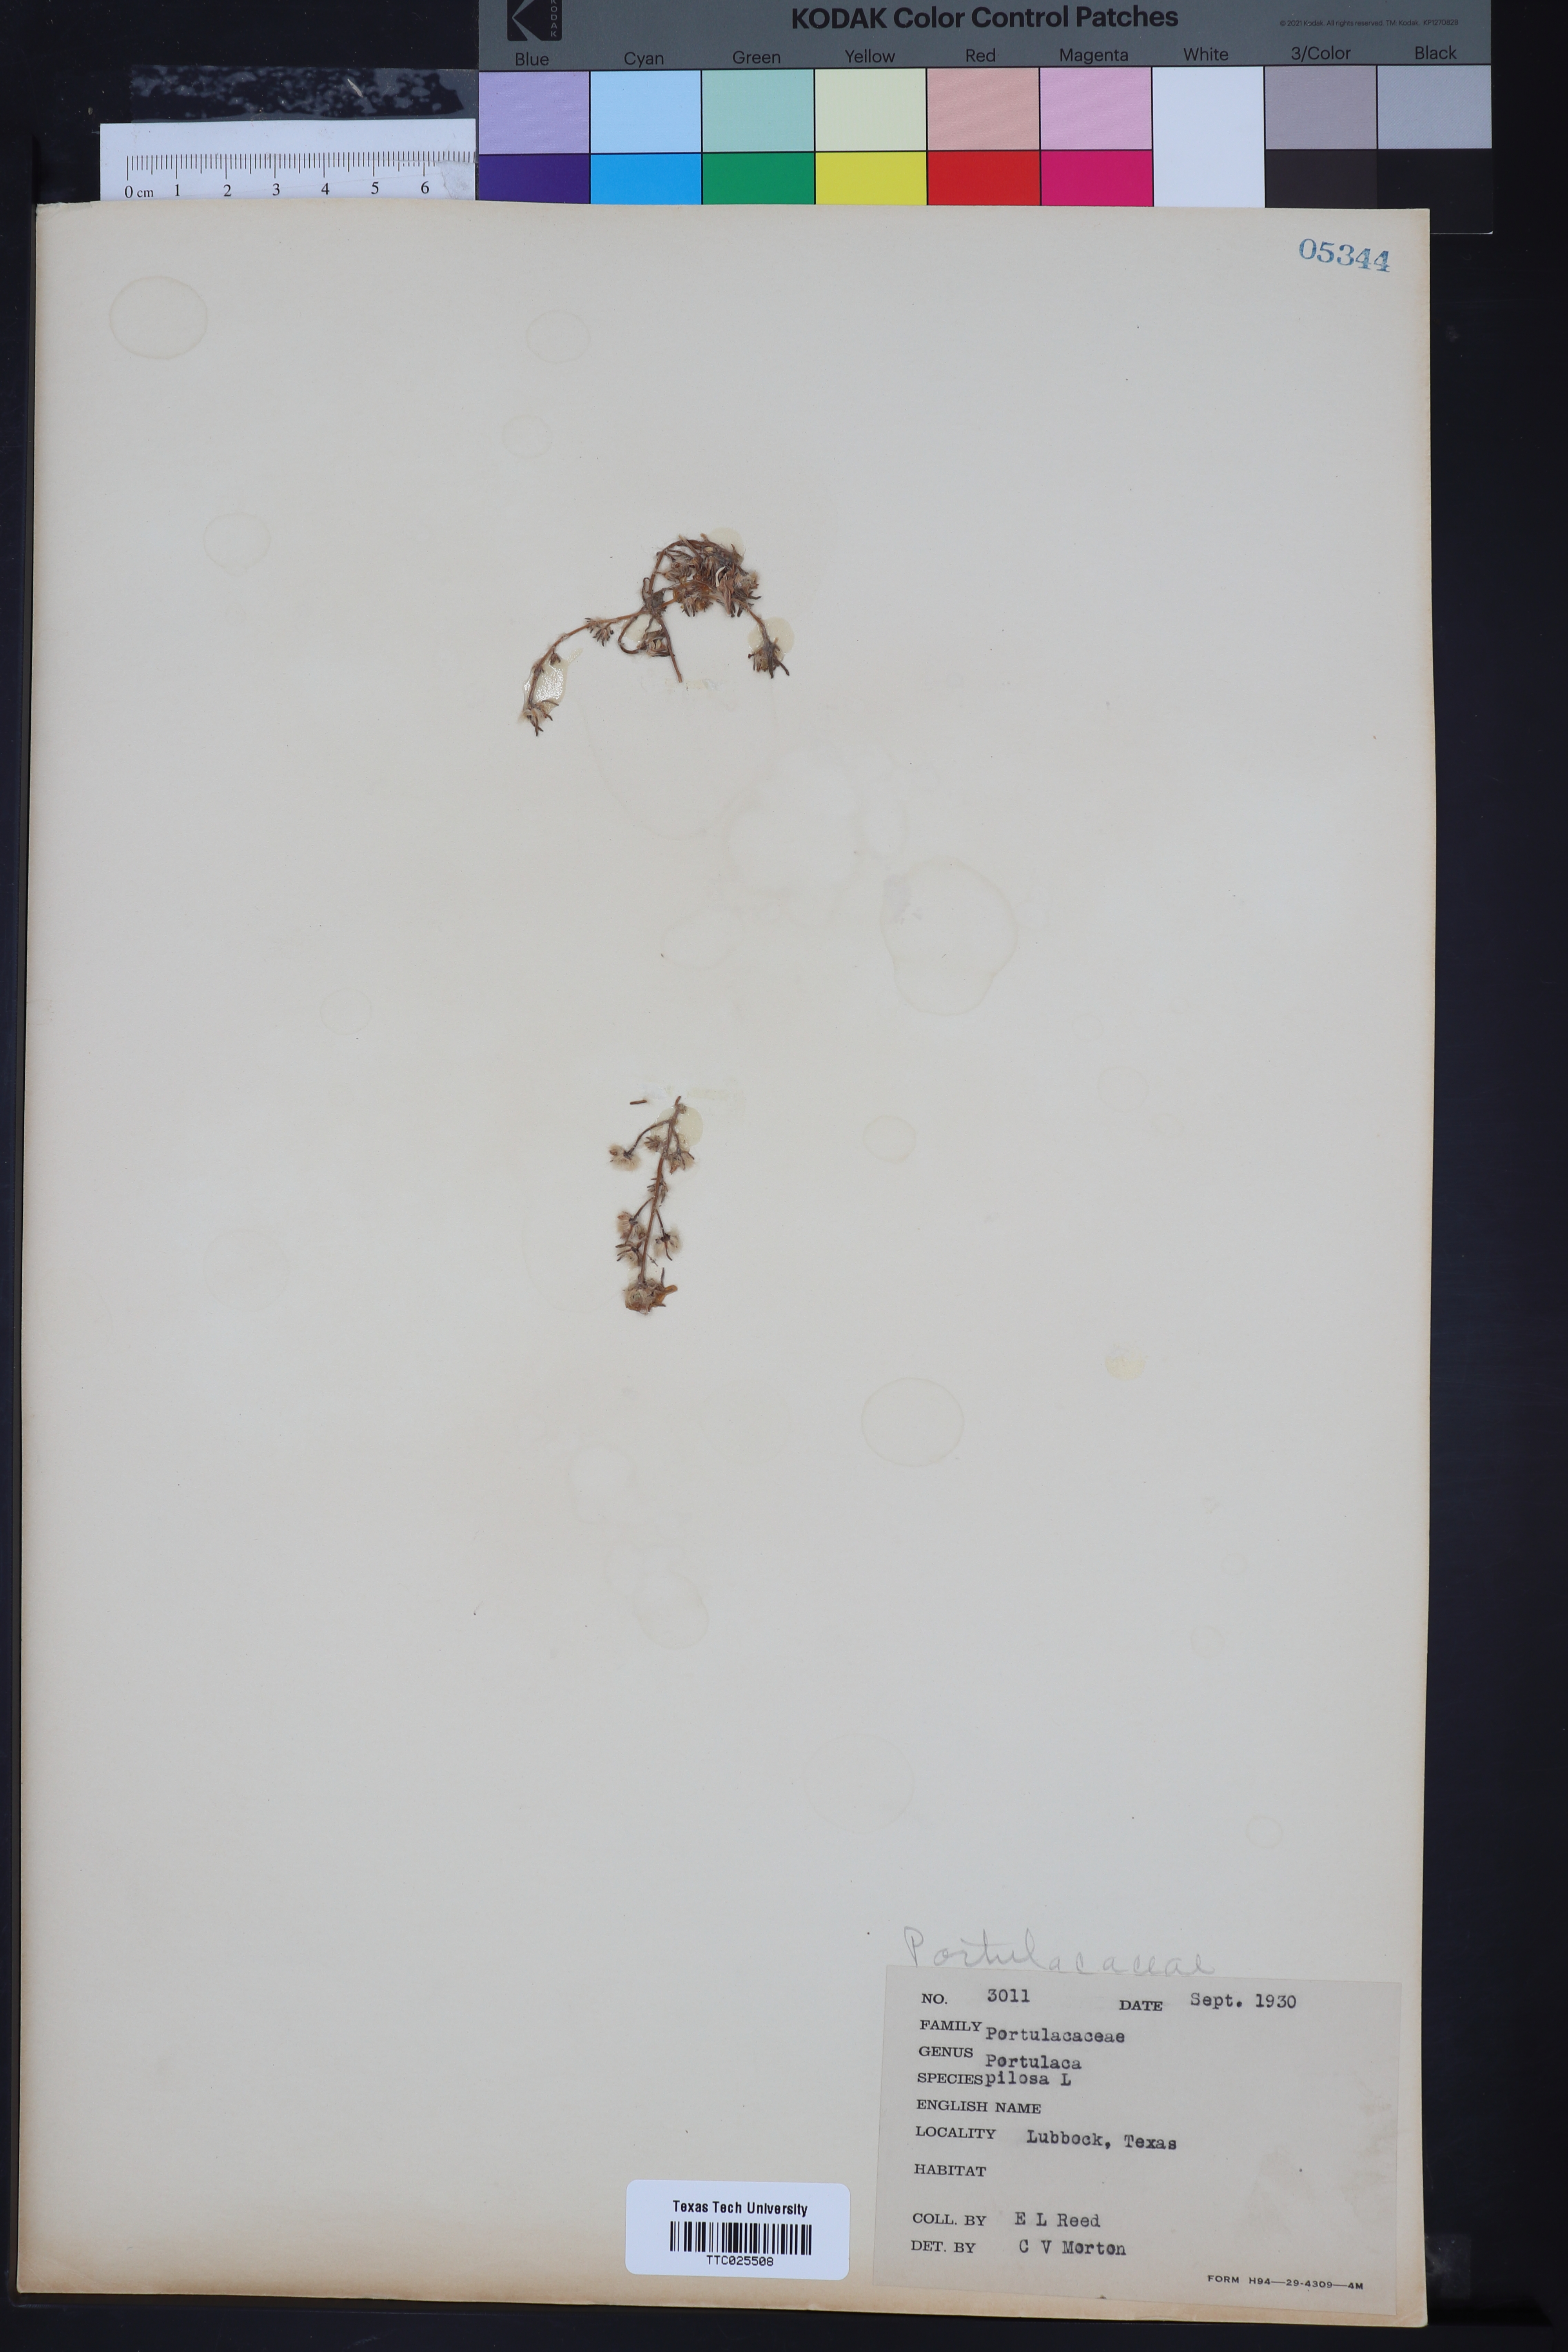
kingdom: Plantae
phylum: Tracheophyta
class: Magnoliopsida
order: Caryophyllales
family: Portulacaceae
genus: Portulaca
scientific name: Portulaca pilosa
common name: Kiss me quick
